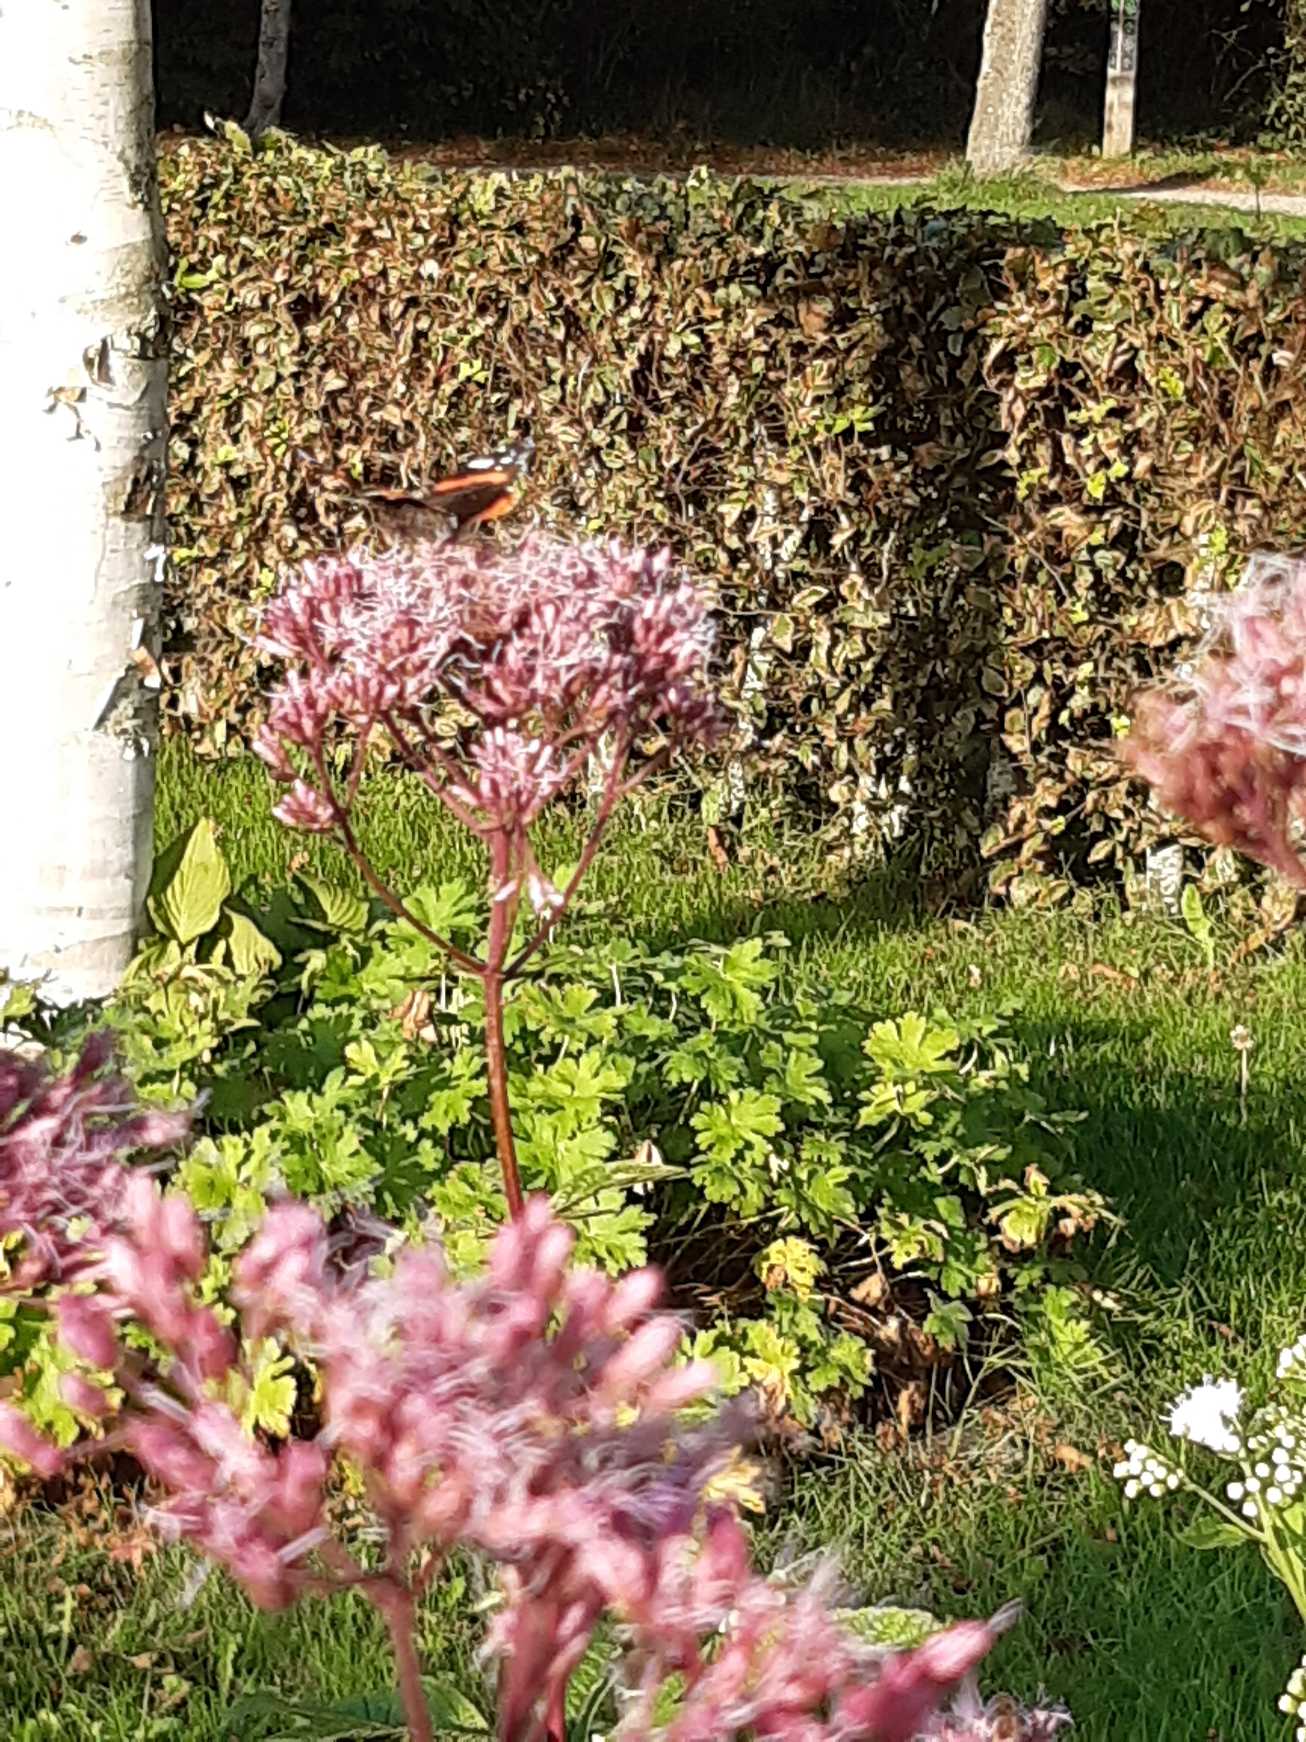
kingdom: Animalia
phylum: Arthropoda
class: Insecta
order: Lepidoptera
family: Nymphalidae
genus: Vanessa
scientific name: Vanessa atalanta
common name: Admiral
